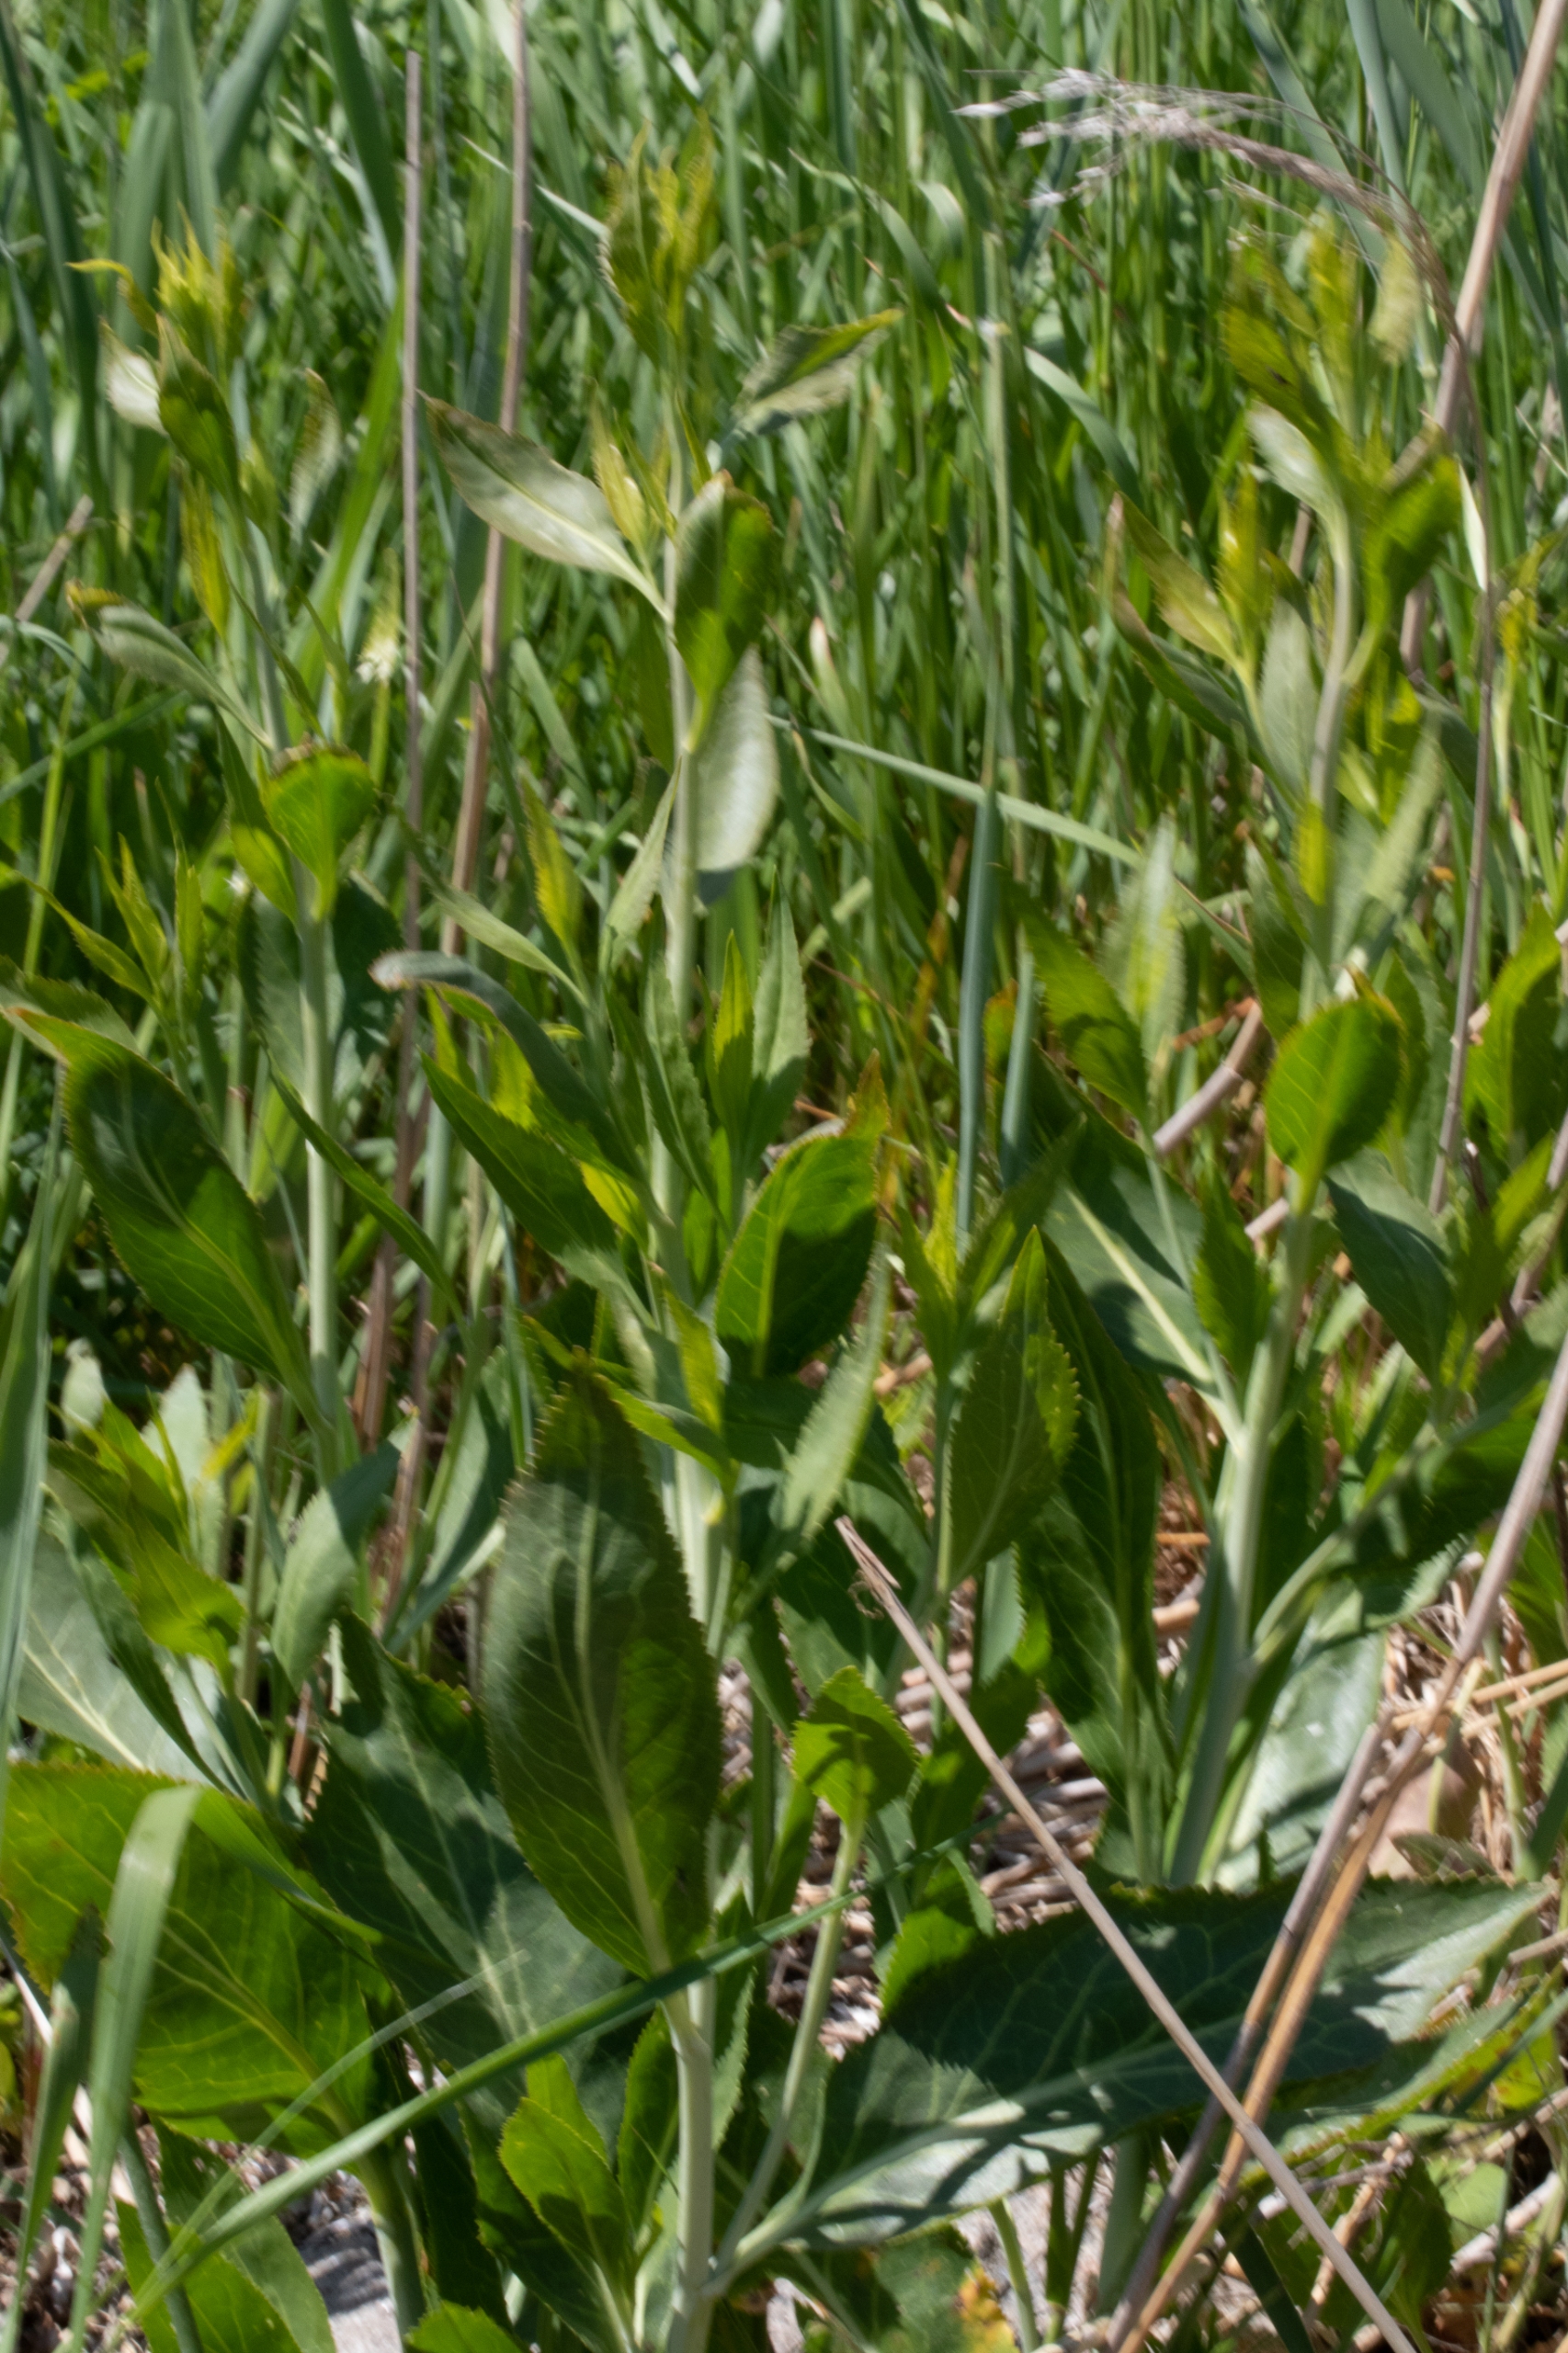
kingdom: Plantae
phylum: Tracheophyta
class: Magnoliopsida
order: Brassicales
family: Brassicaceae
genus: Lepidium
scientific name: Lepidium latifolium
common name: Strand-karse
